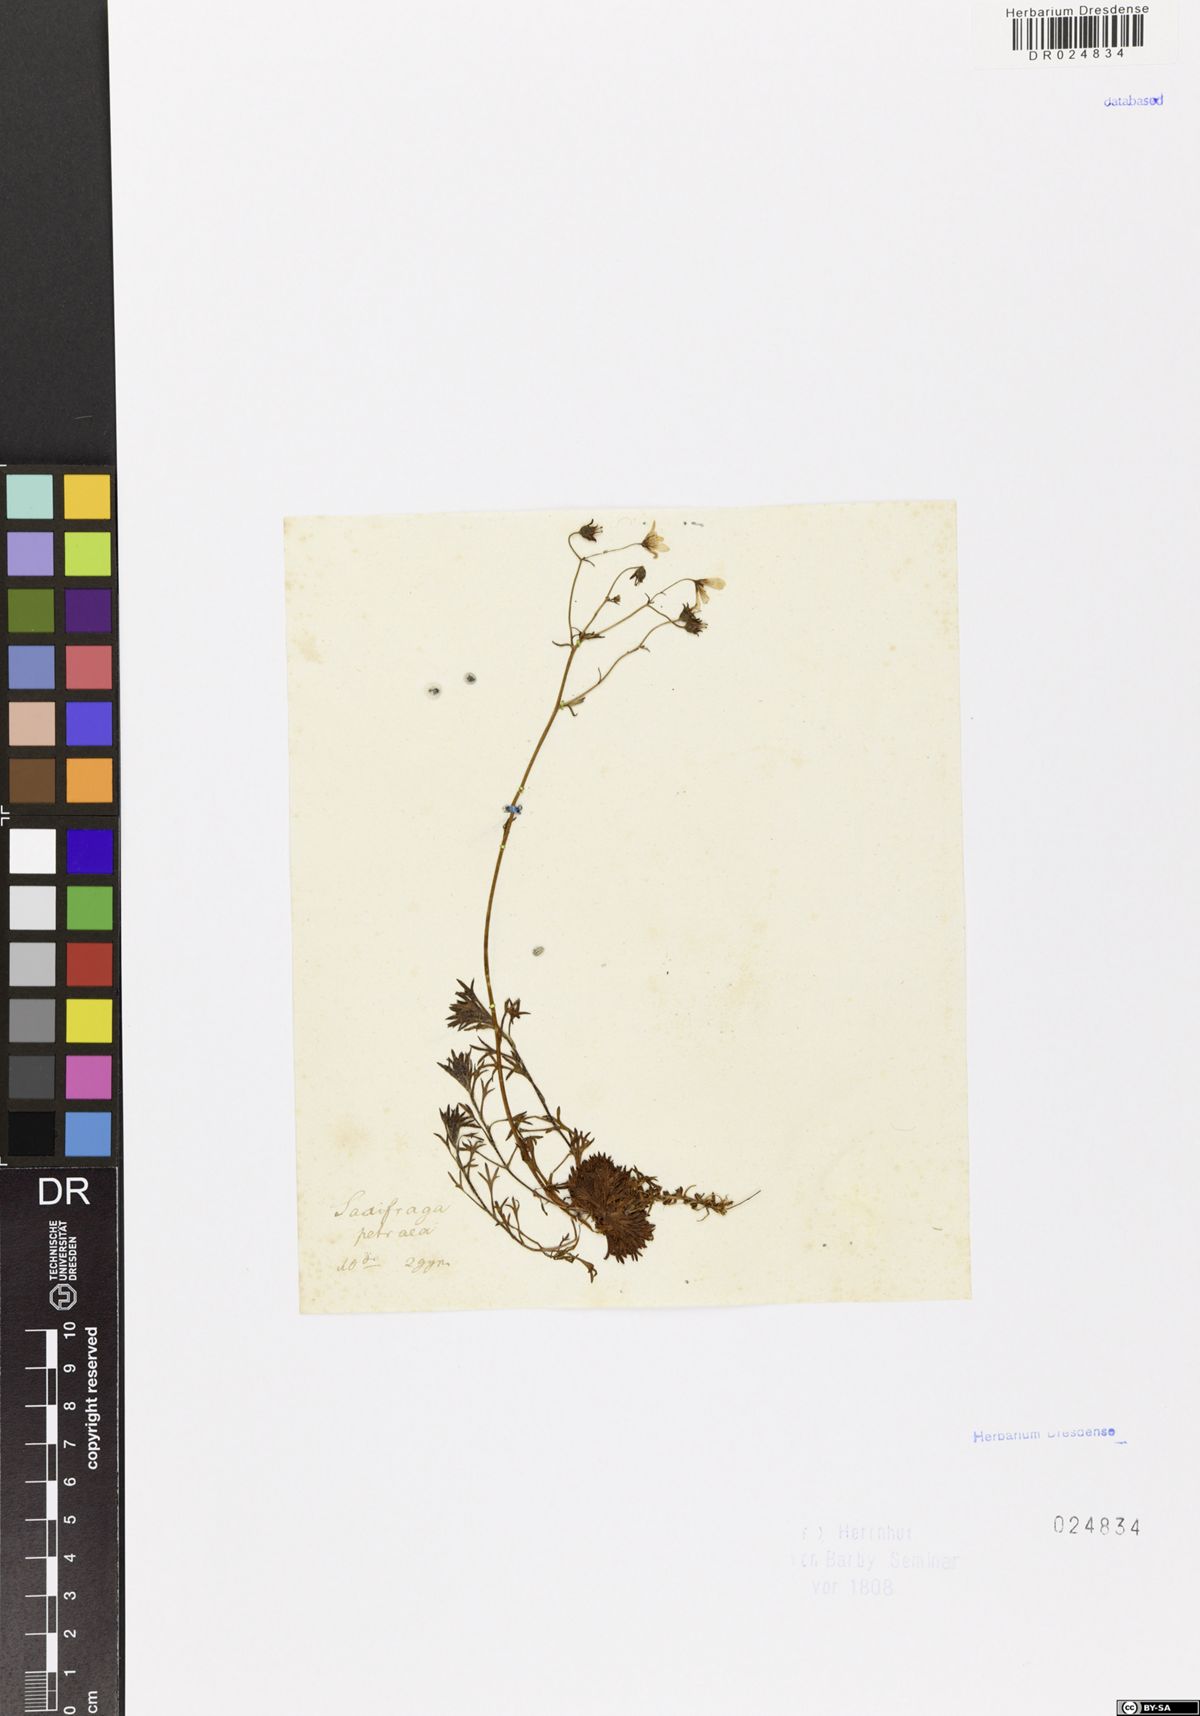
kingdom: Plantae
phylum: Tracheophyta
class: Magnoliopsida
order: Saxifragales
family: Saxifragaceae
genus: Saxifraga
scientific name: Saxifraga rosacea
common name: Irish saxifrage
